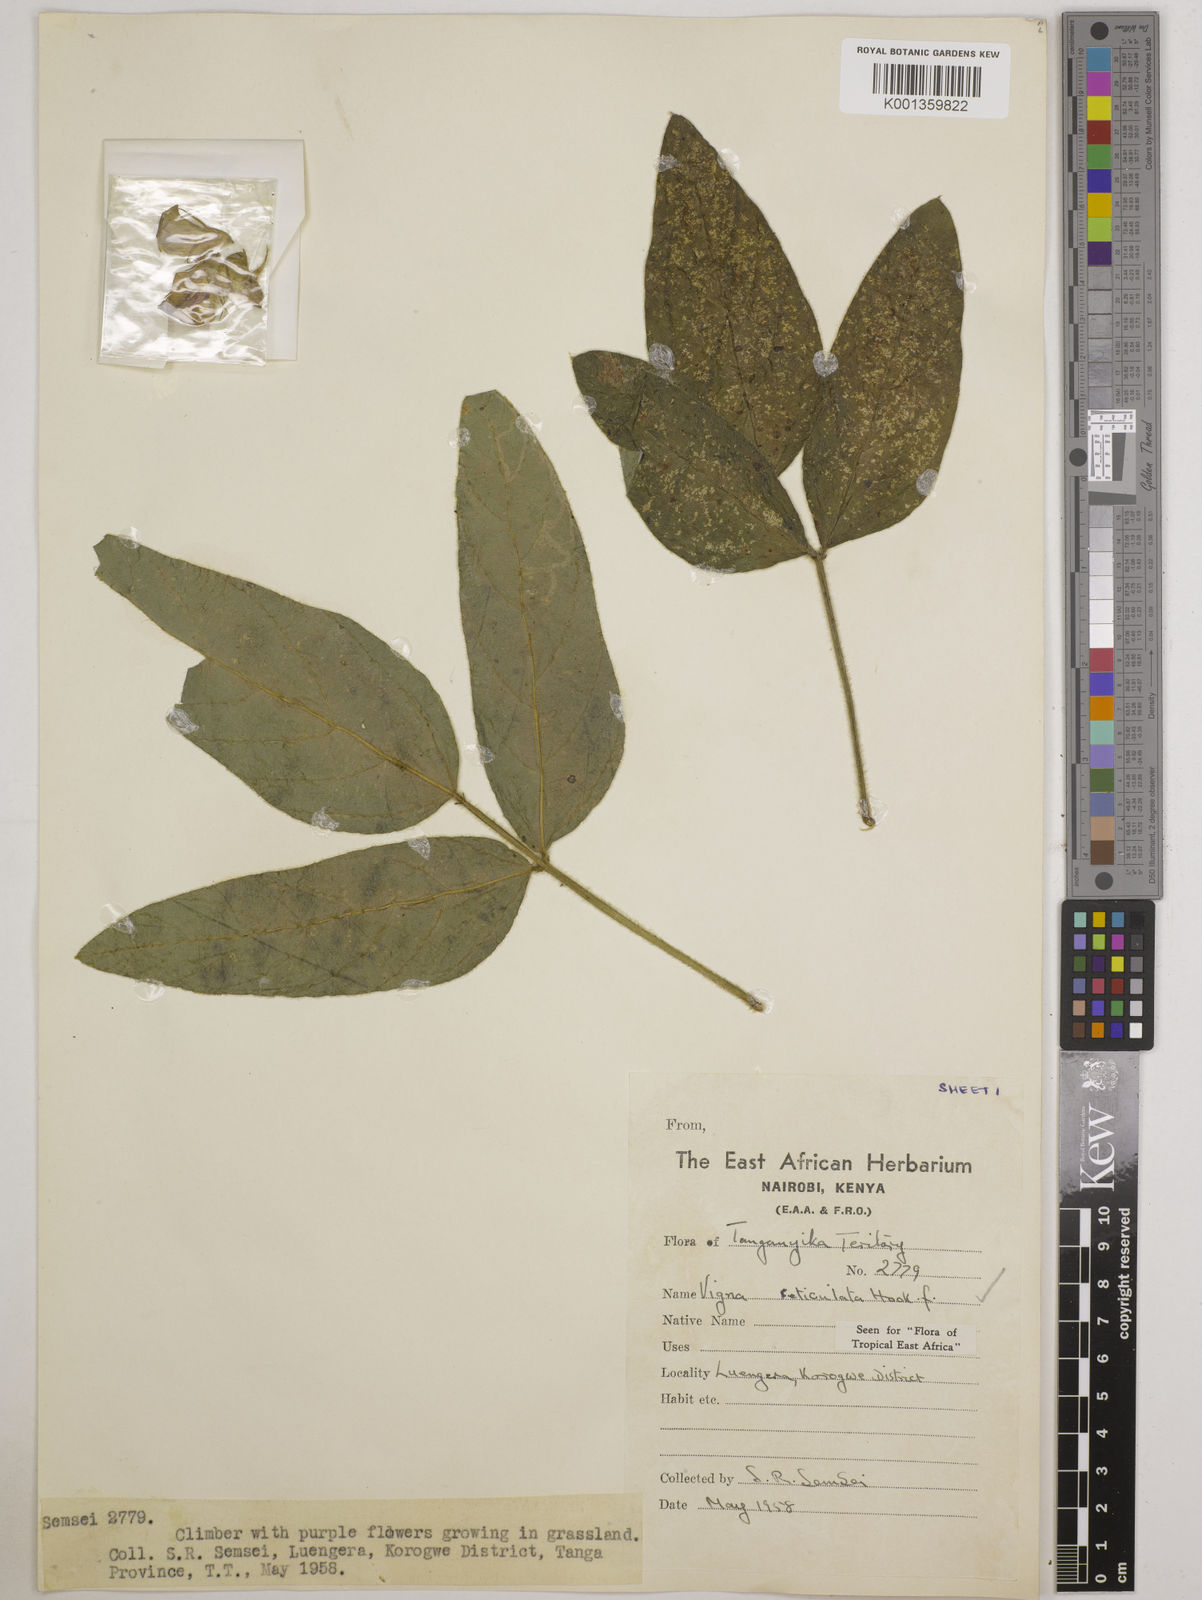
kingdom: Plantae
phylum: Tracheophyta
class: Magnoliopsida
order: Fabales
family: Fabaceae
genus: Vigna
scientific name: Vigna reticulata
